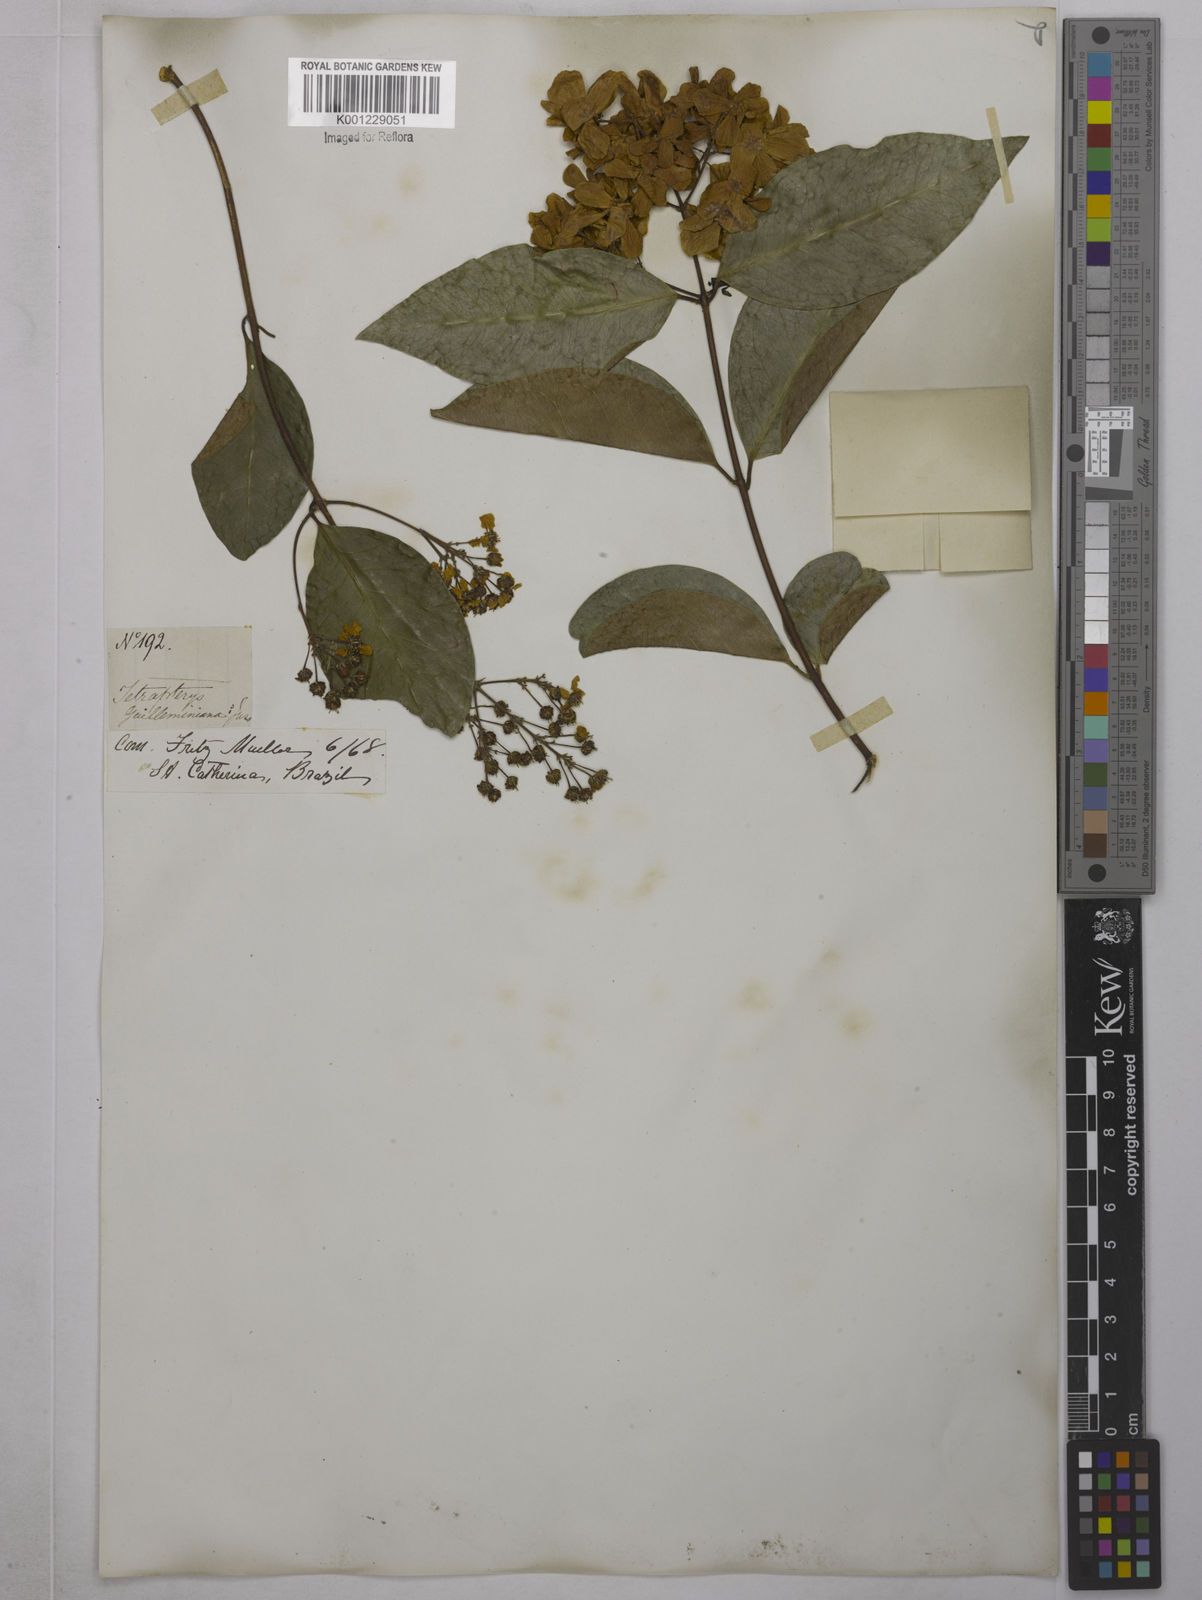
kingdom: Plantae
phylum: Tracheophyta
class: Magnoliopsida
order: Malpighiales
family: Malpighiaceae
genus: Niedenzuella
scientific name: Niedenzuella acutifolia
